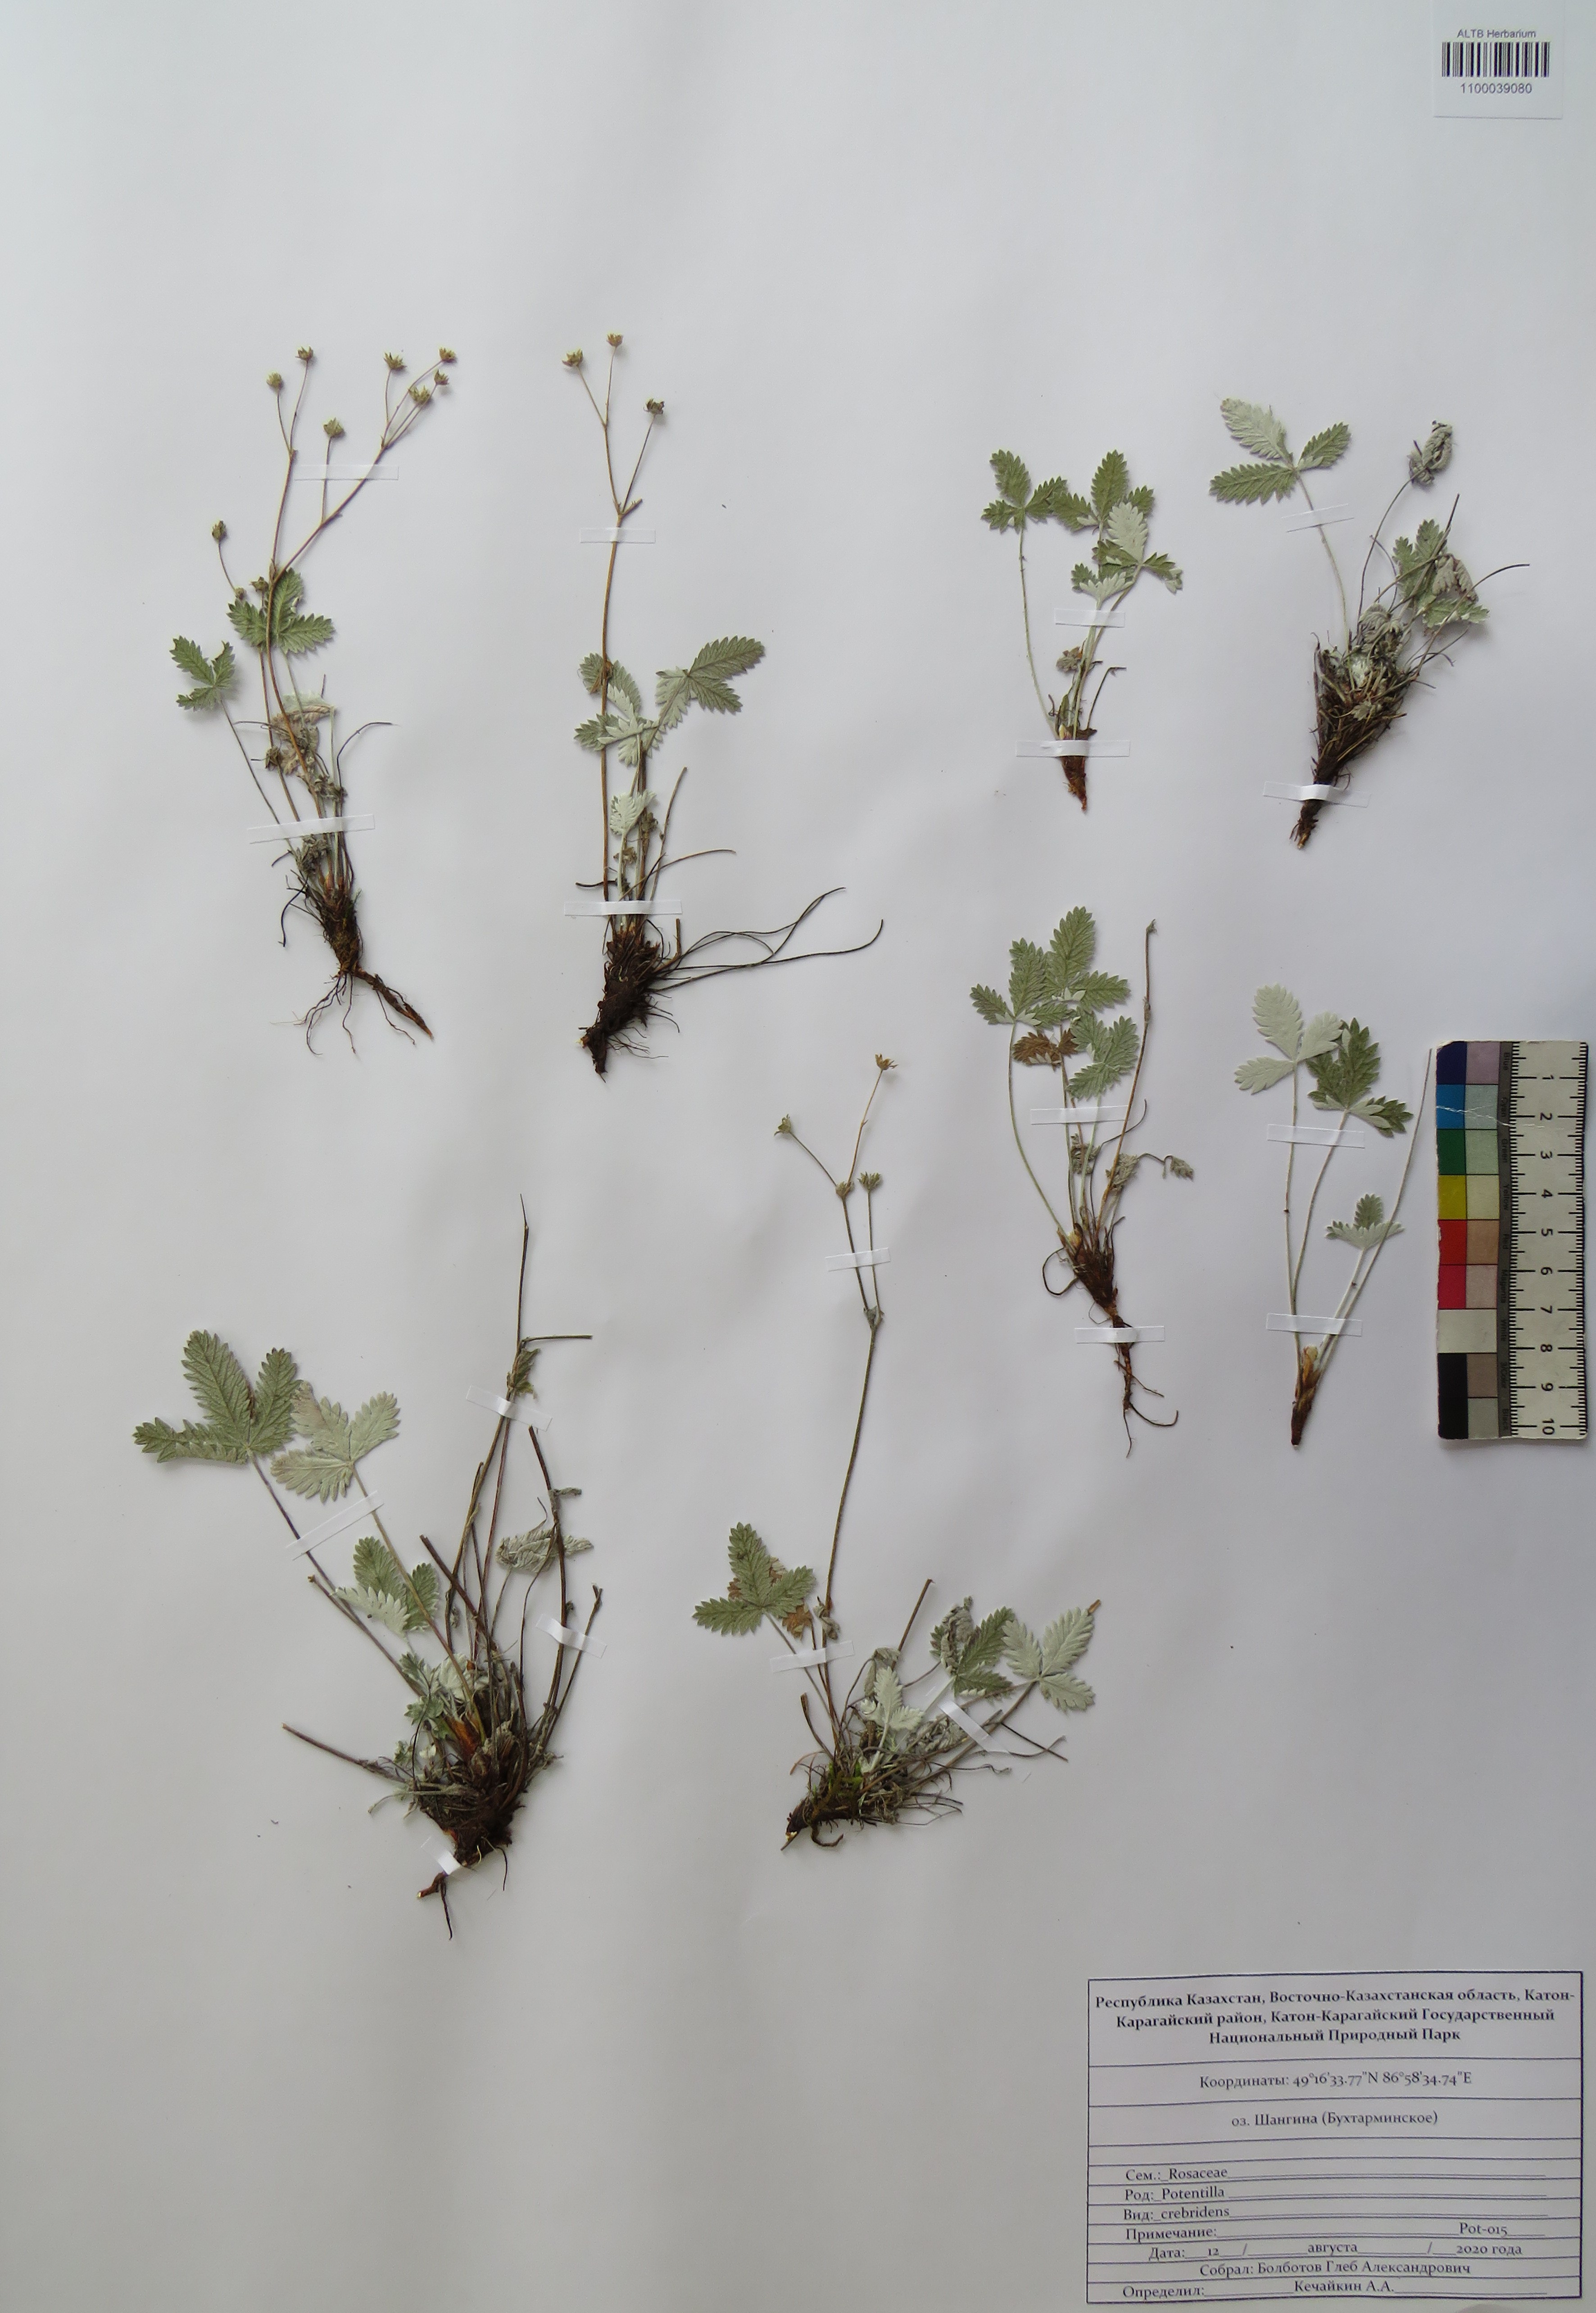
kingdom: Plantae
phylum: Tracheophyta
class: Magnoliopsida
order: Rosales
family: Rosaceae
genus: Potentilla
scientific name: Potentilla crebridens
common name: Congested cinquefoil
